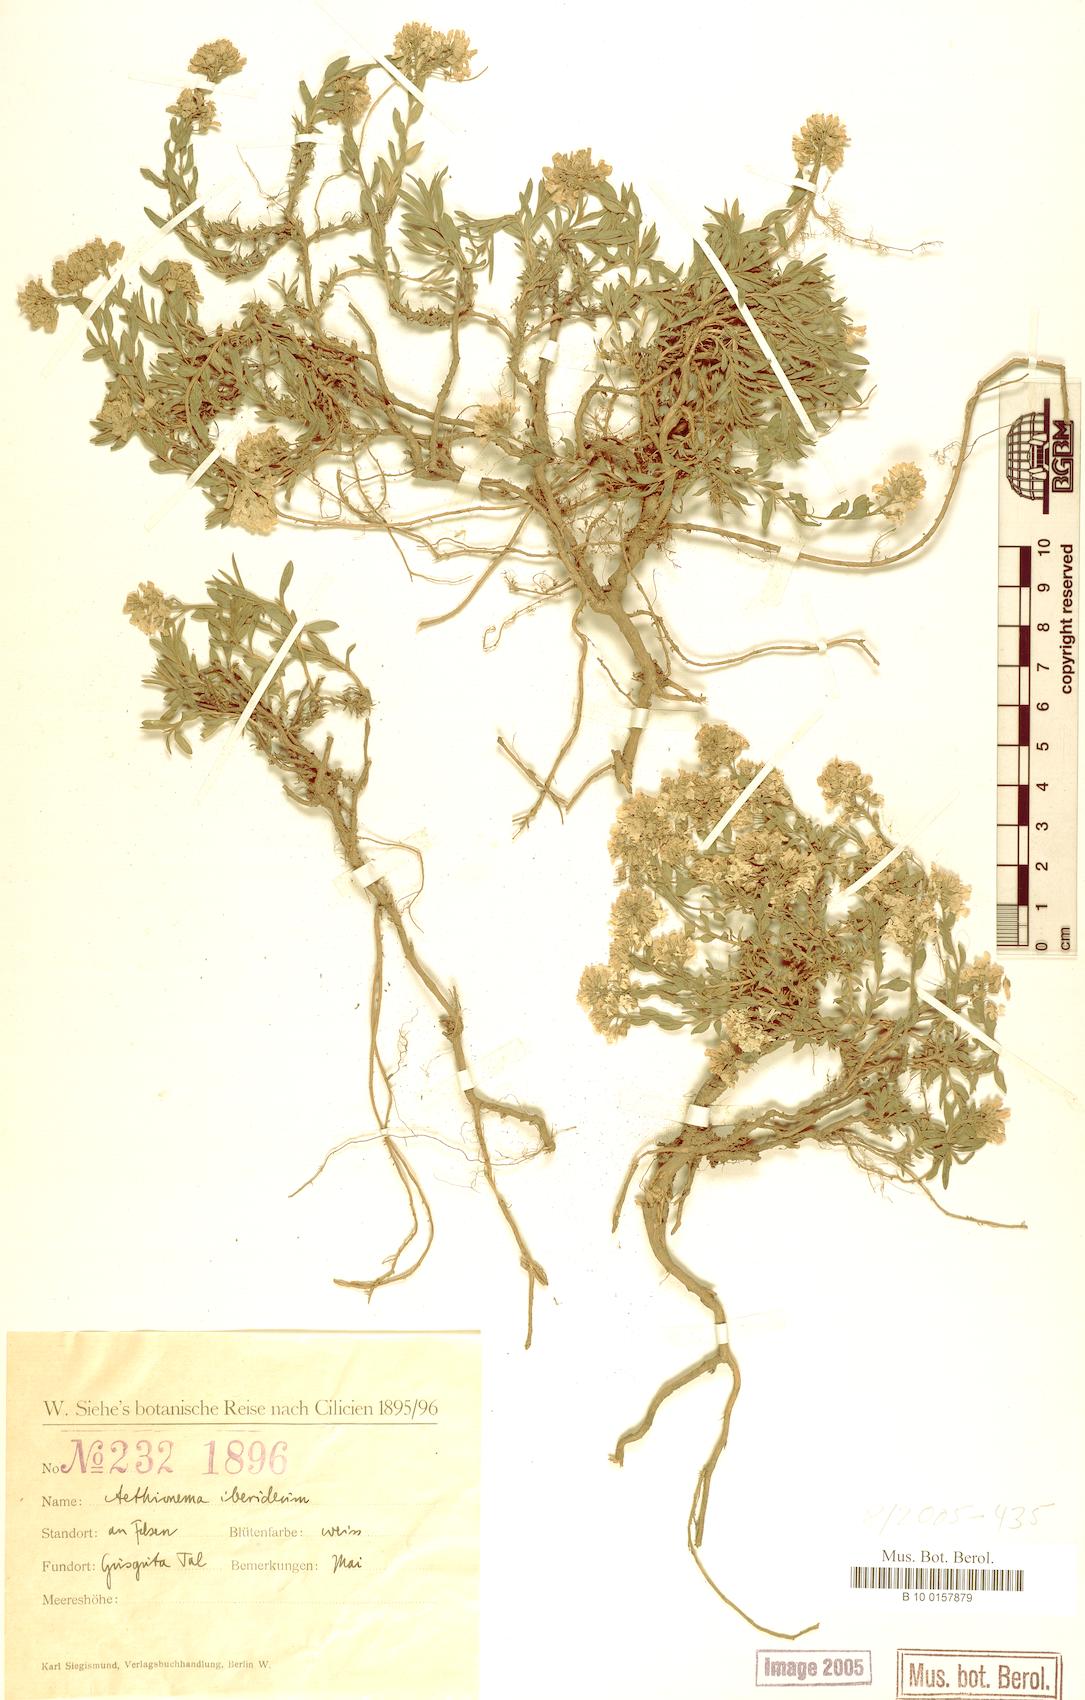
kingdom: Plantae
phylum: Tracheophyta
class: Magnoliopsida
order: Brassicales
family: Brassicaceae
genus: Noccaea
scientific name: Noccaea iberidea
